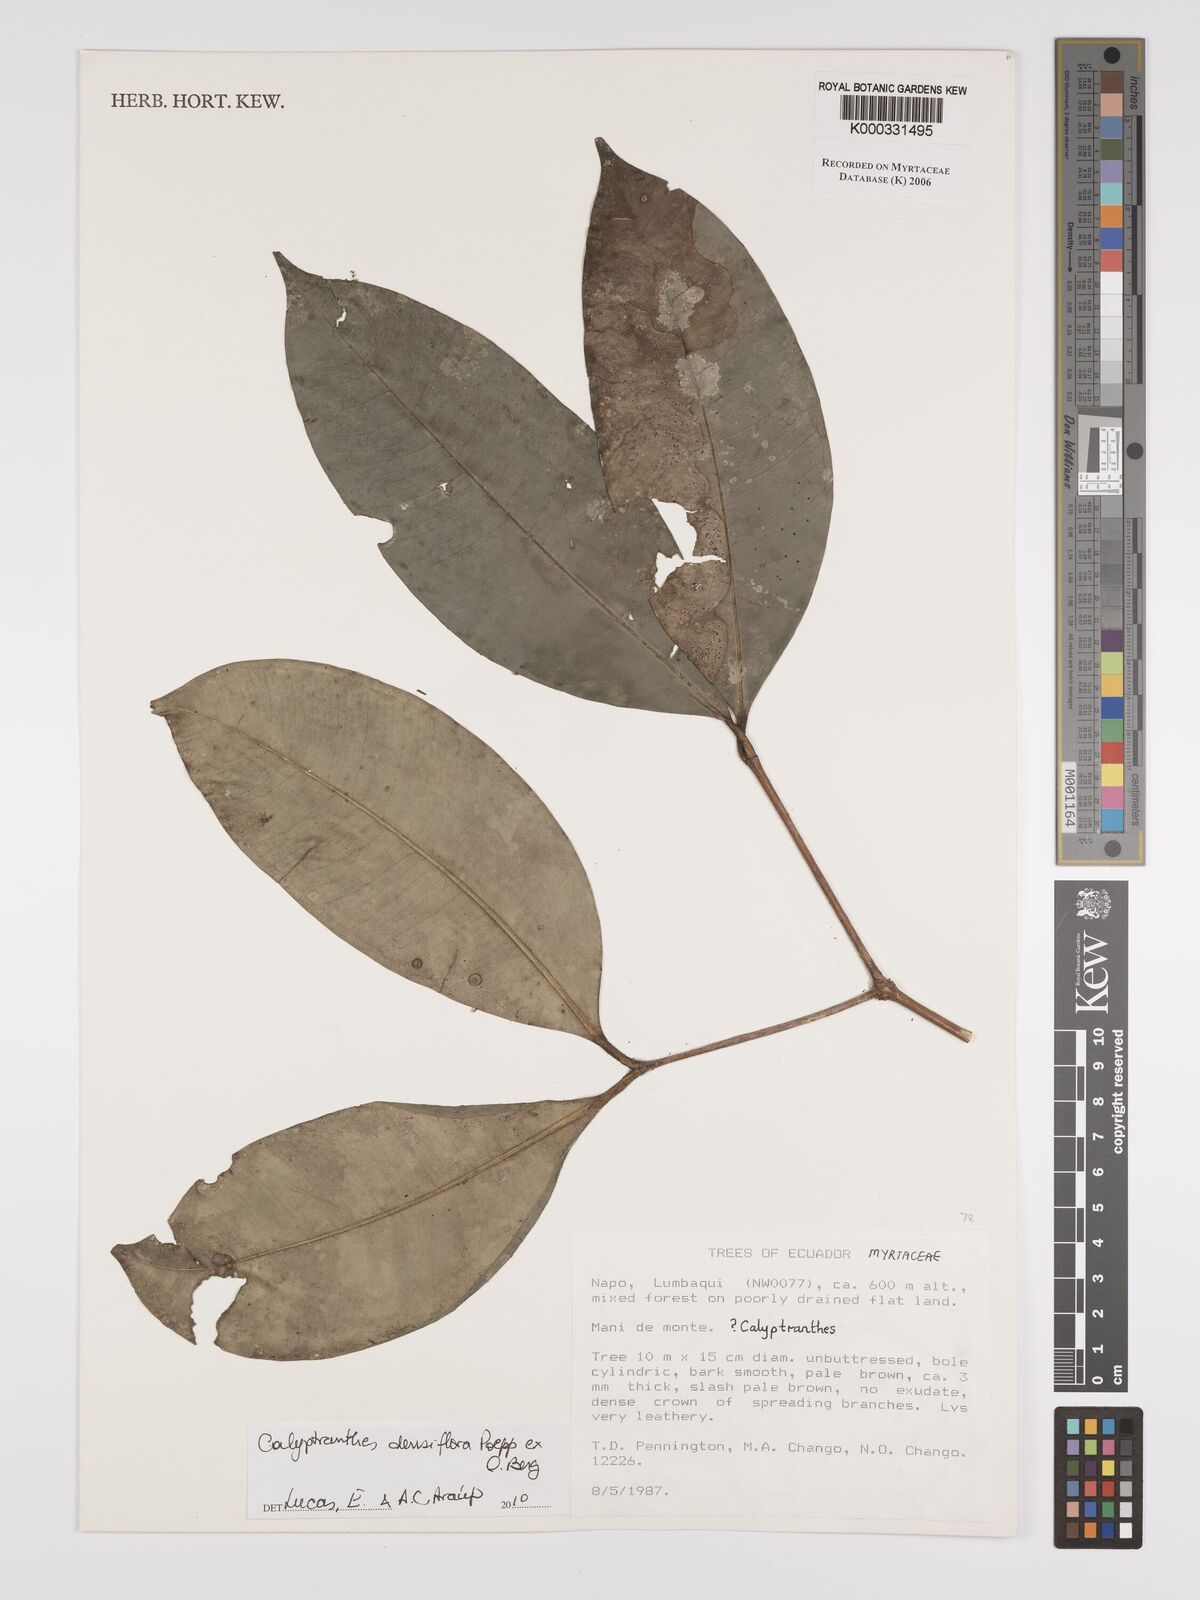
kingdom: Plantae
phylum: Tracheophyta
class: Magnoliopsida
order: Myrtales
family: Myrtaceae
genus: Calyptranthes
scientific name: Calyptranthes
